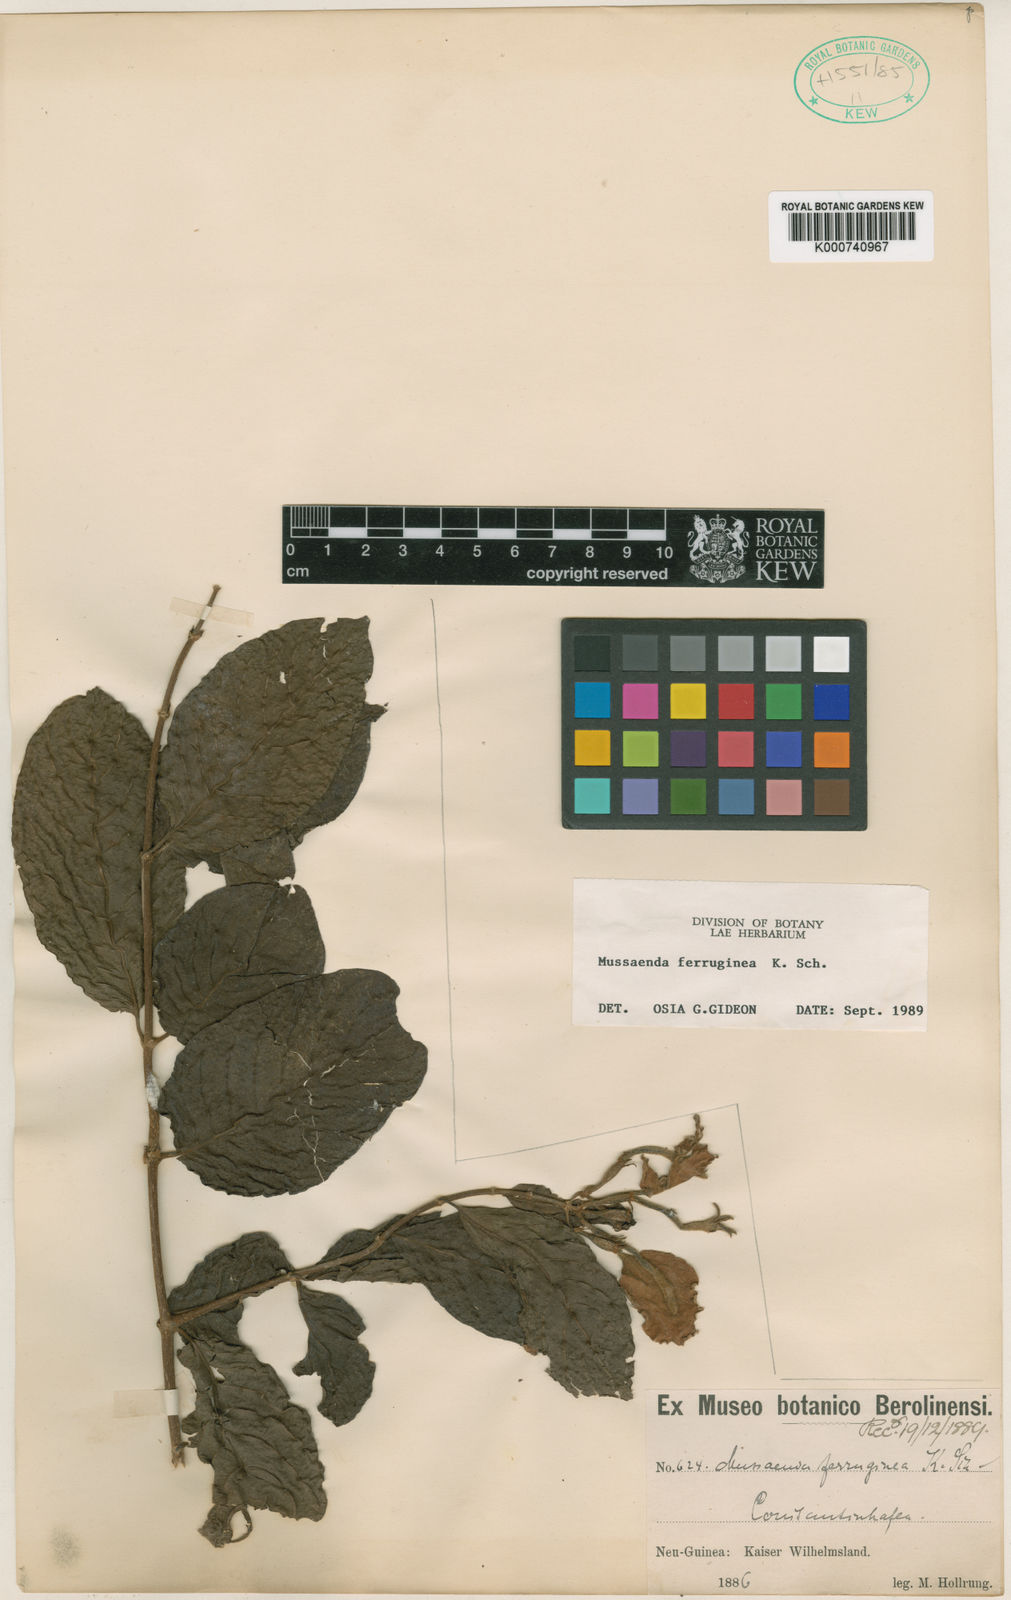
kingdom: Plantae
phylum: Tracheophyta
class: Magnoliopsida
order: Gentianales
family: Rubiaceae
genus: Mussaenda
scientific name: Mussaenda ferruginea
